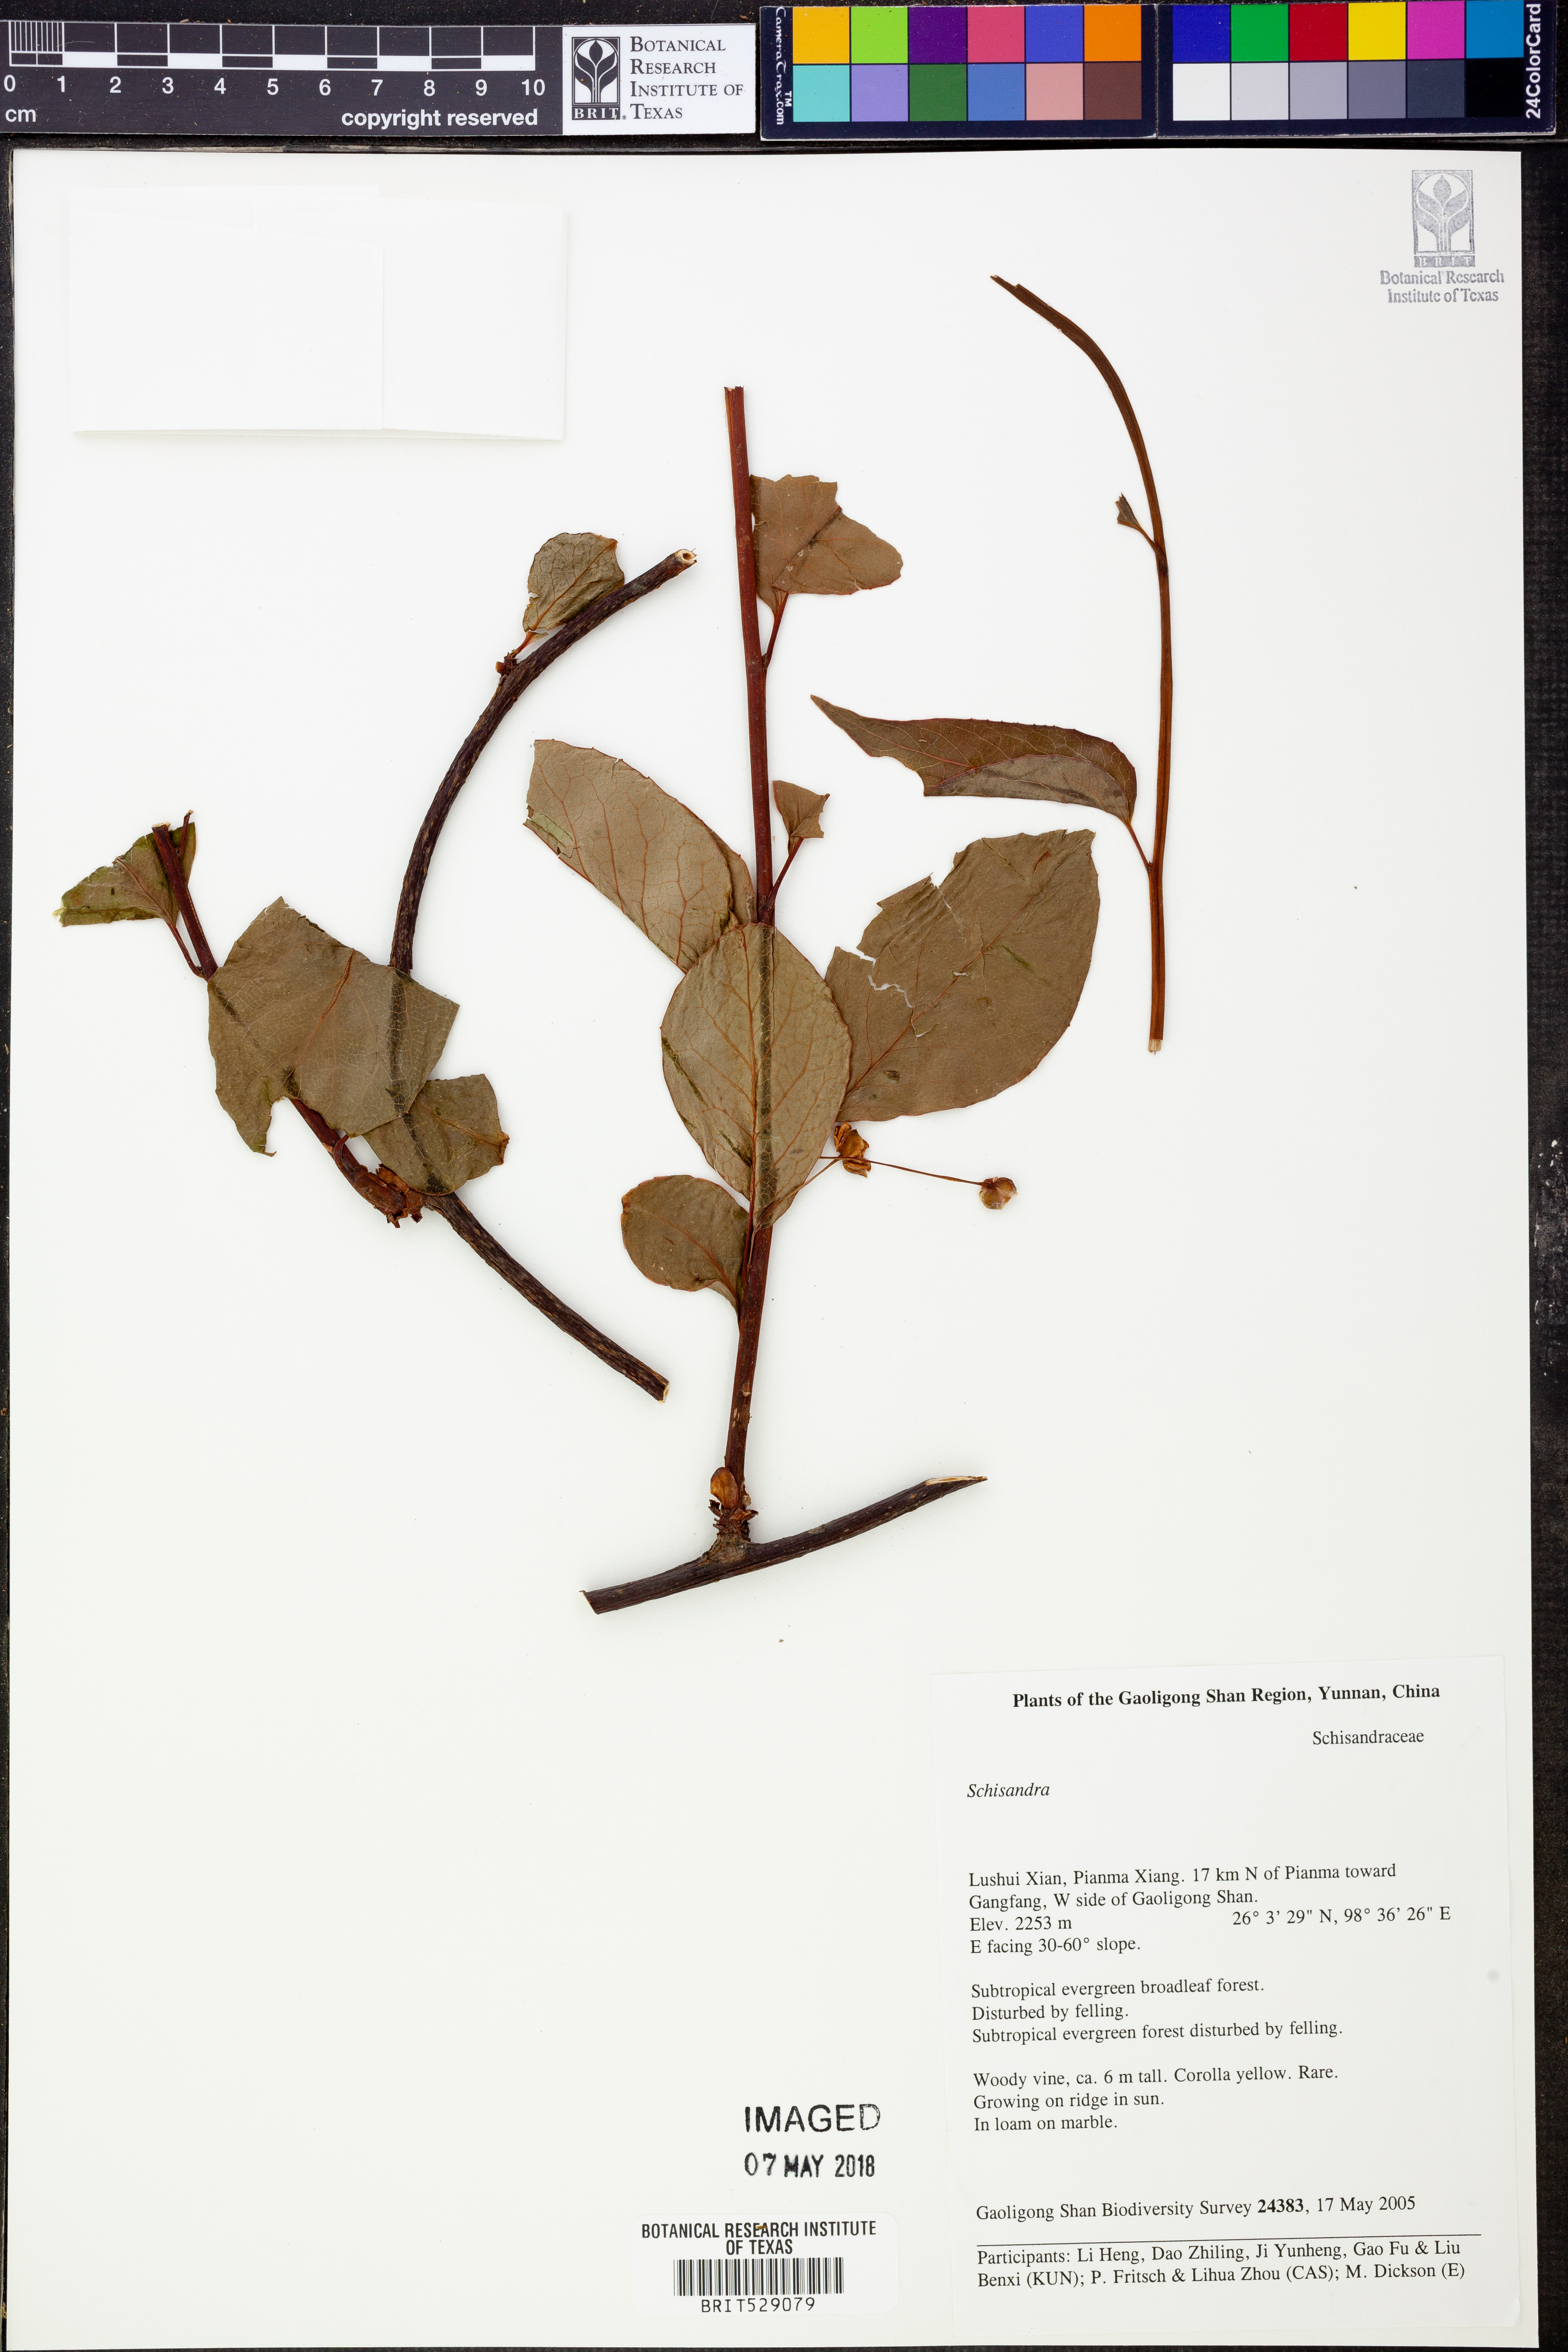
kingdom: Plantae
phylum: Tracheophyta
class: Magnoliopsida
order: Austrobaileyales
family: Schisandraceae
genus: Schisandra
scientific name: Schisandra
